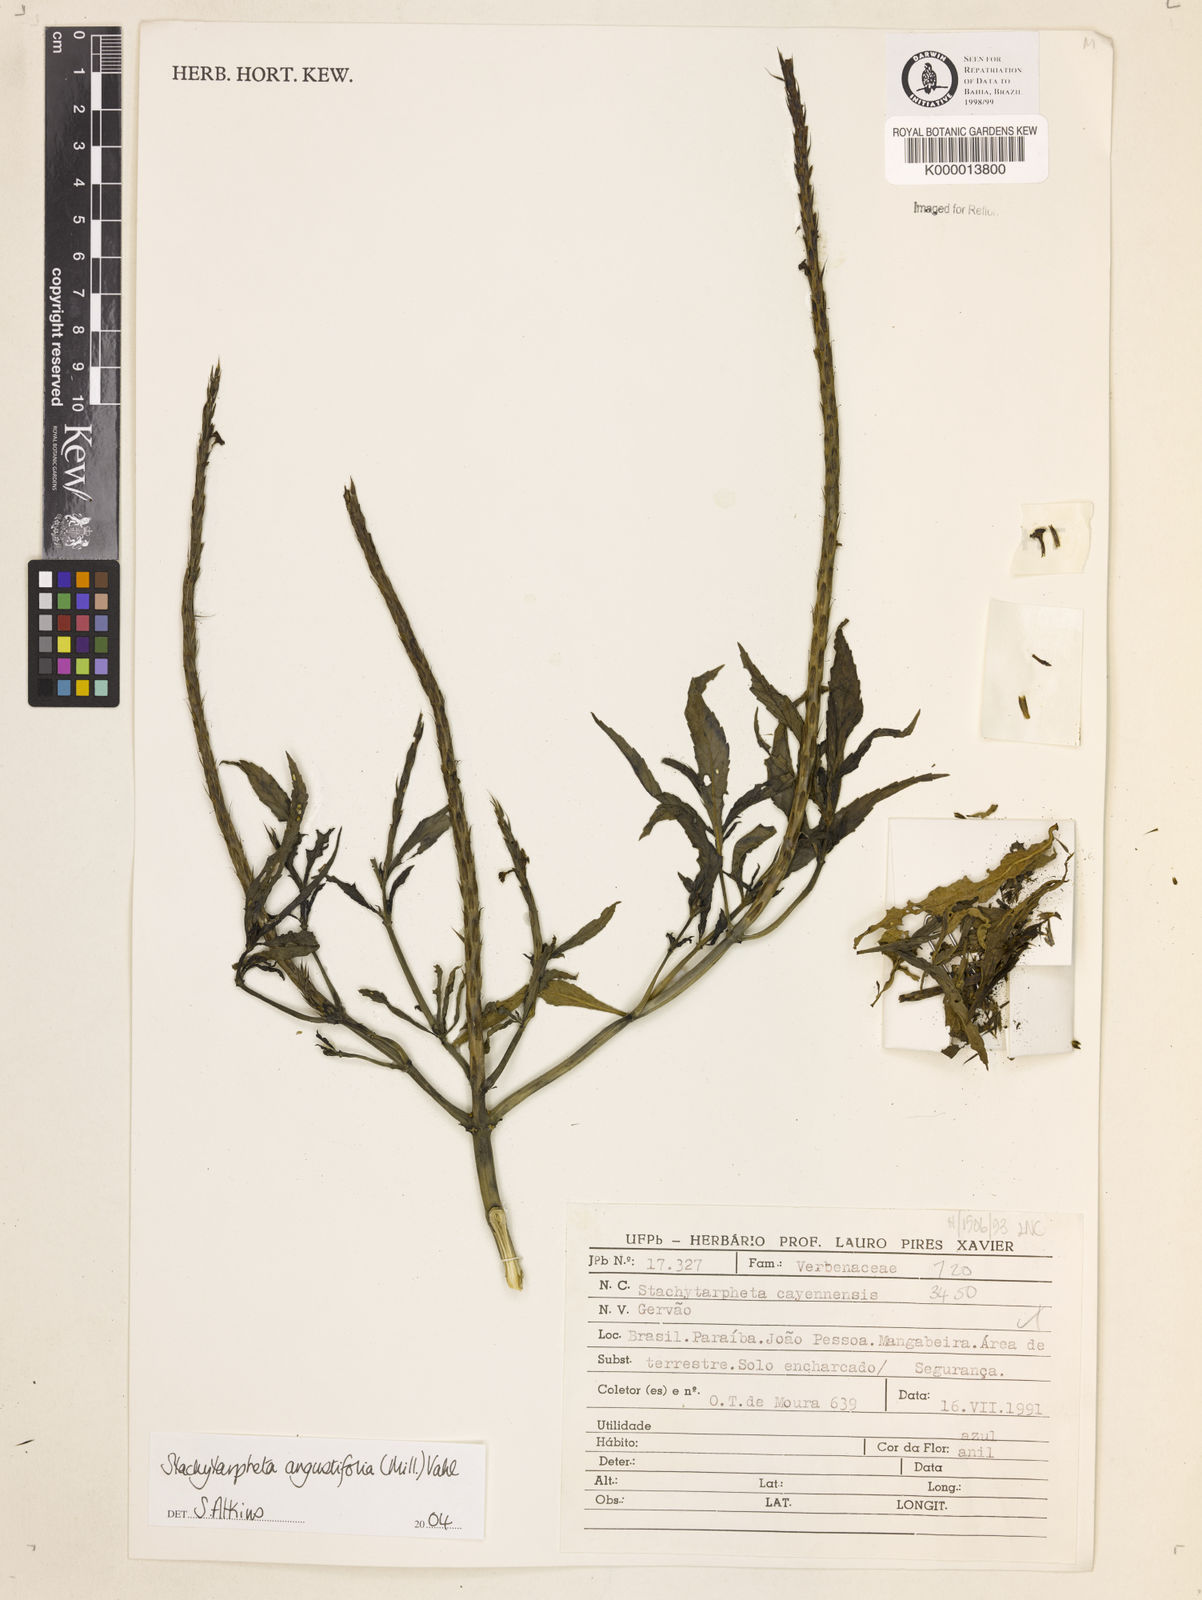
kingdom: Plantae
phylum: Tracheophyta
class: Magnoliopsida
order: Lamiales
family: Verbenaceae
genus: Stachytarpheta
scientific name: Stachytarpheta indica
